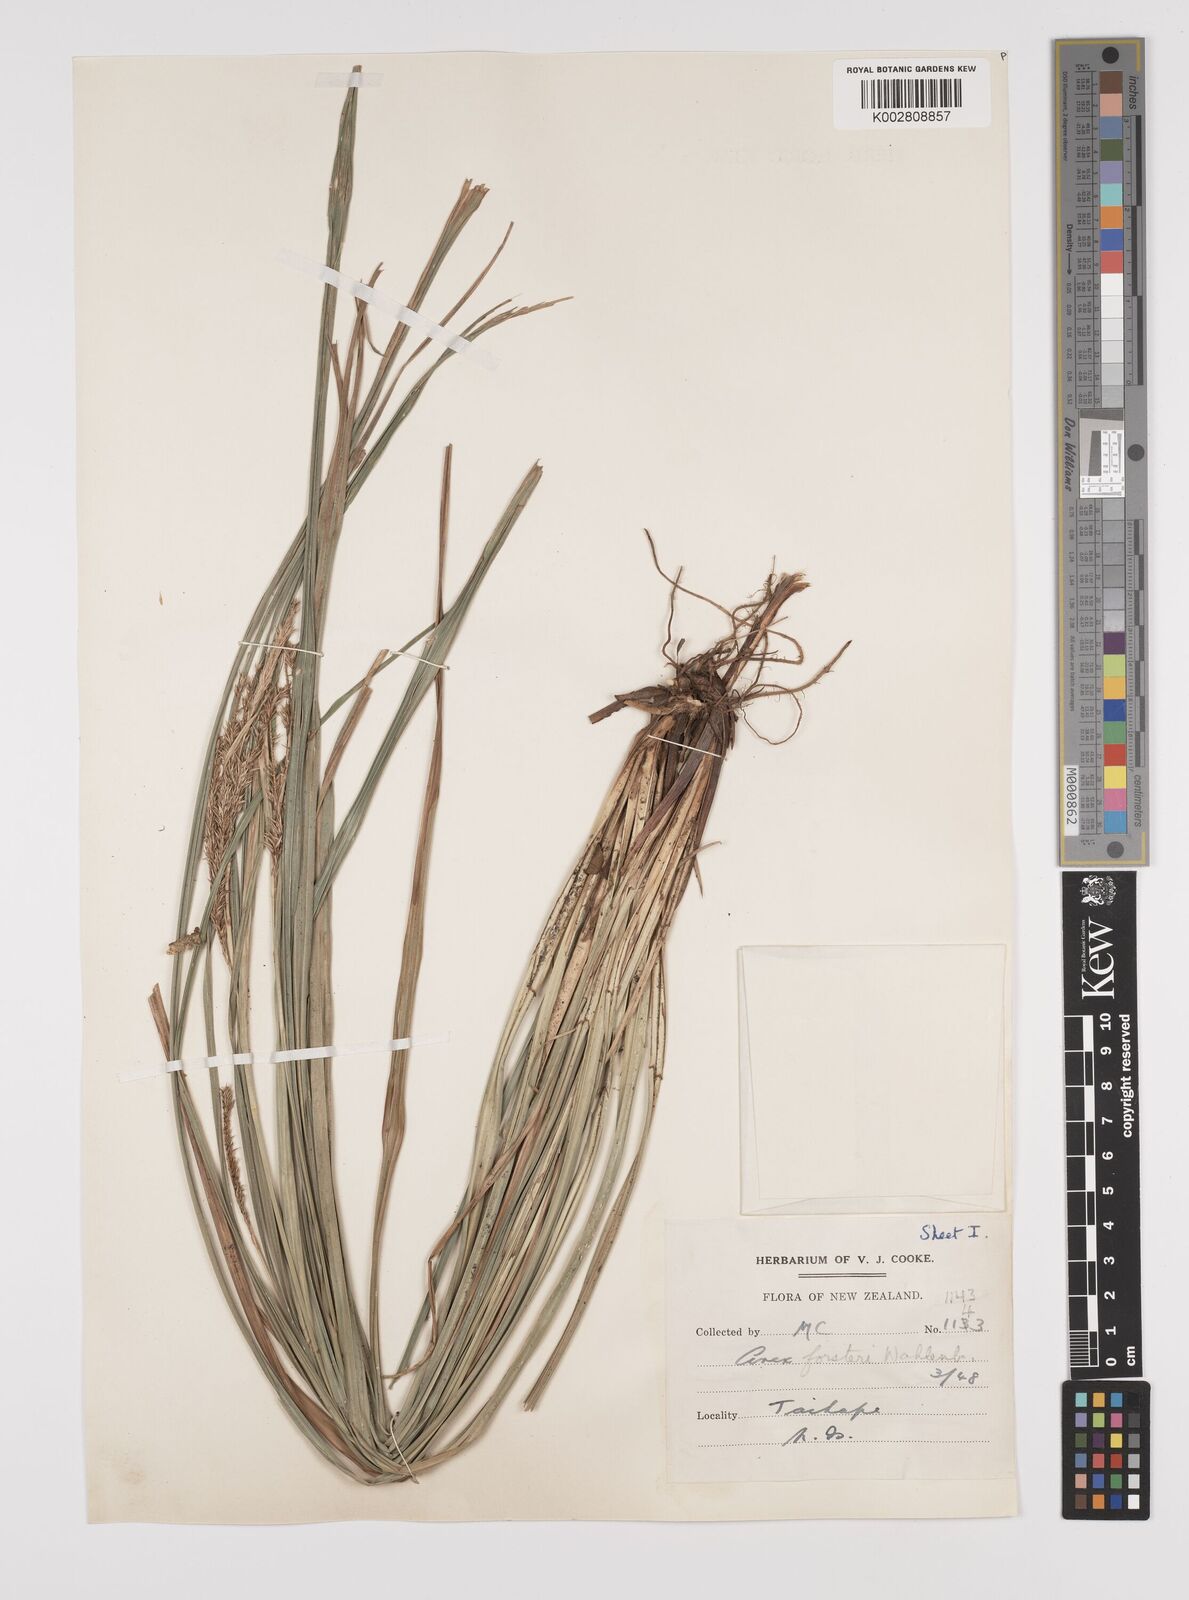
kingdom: Plantae
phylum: Tracheophyta
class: Liliopsida
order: Poales
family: Cyperaceae
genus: Carex
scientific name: Carex forsteri
